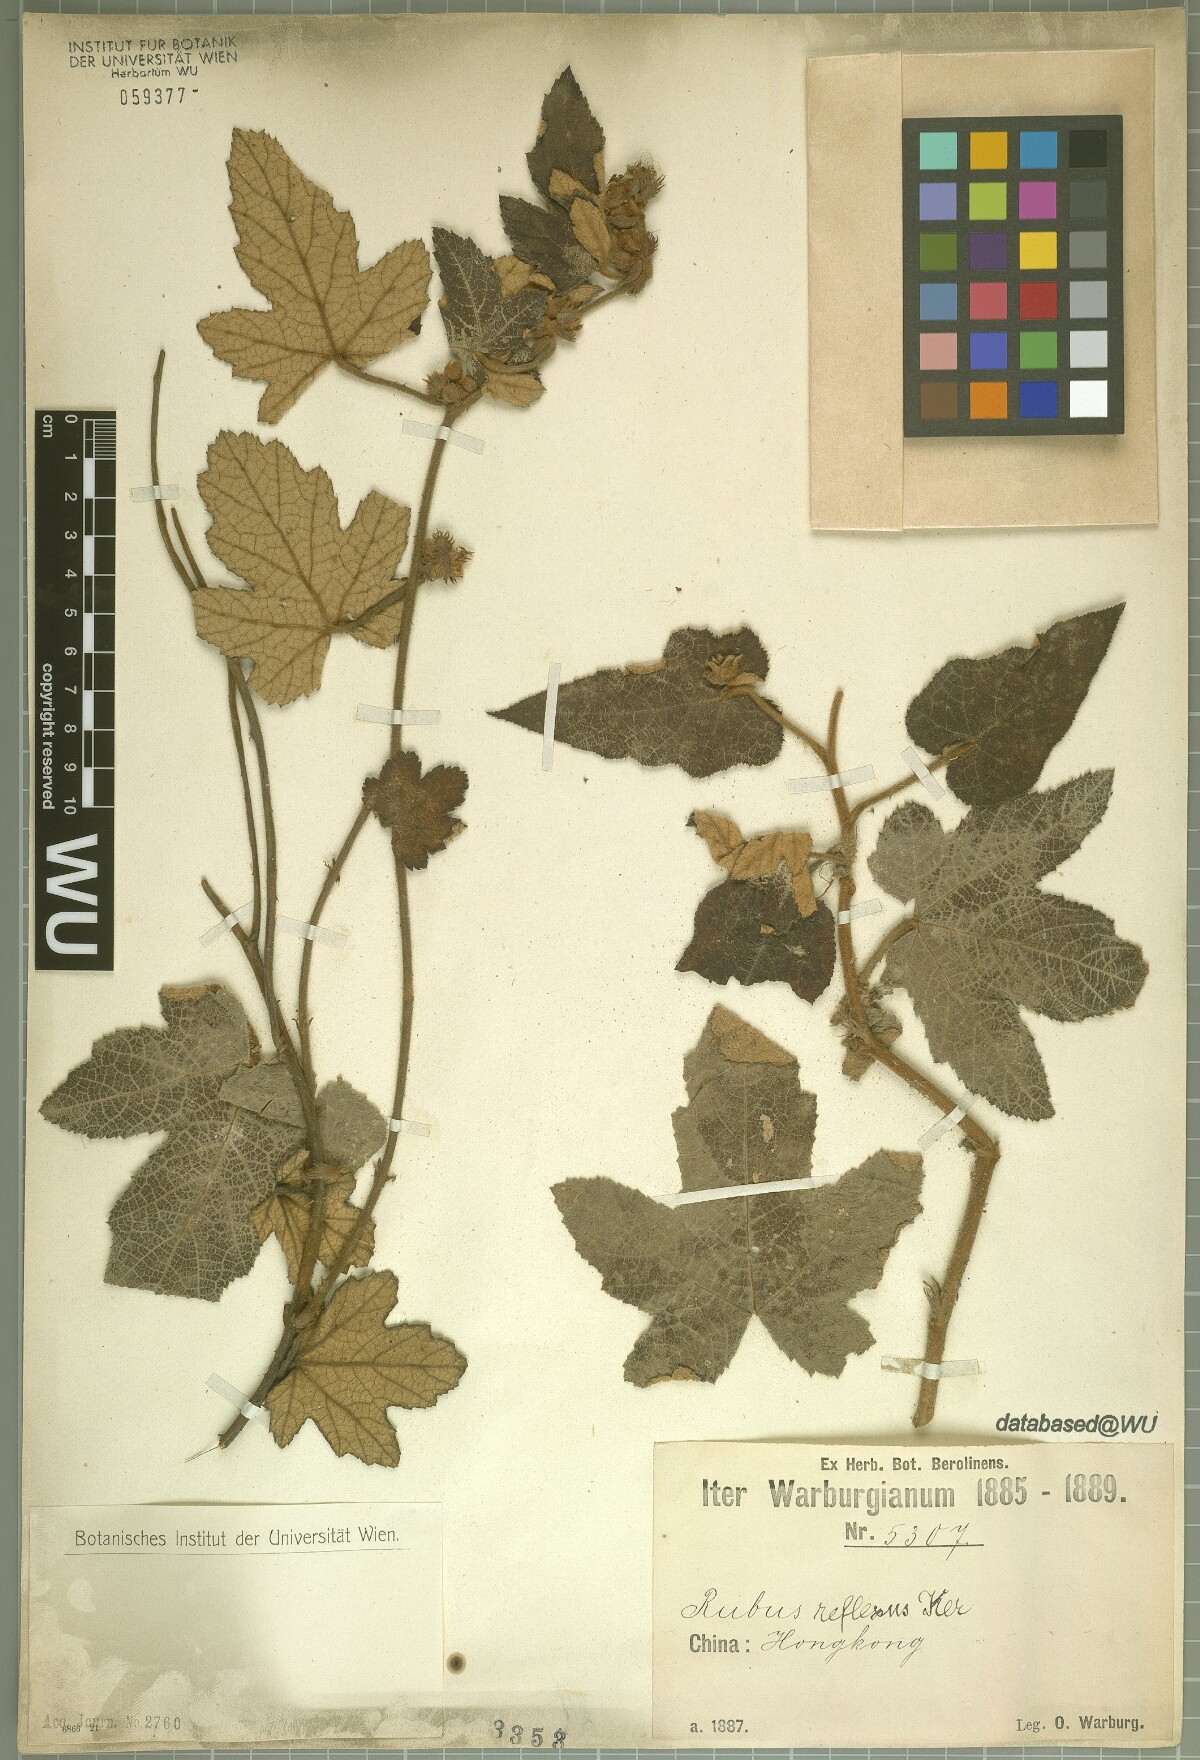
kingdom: Plantae
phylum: Tracheophyta
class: Magnoliopsida
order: Rosales
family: Rosaceae
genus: Rubus
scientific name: Rubus reflexus
